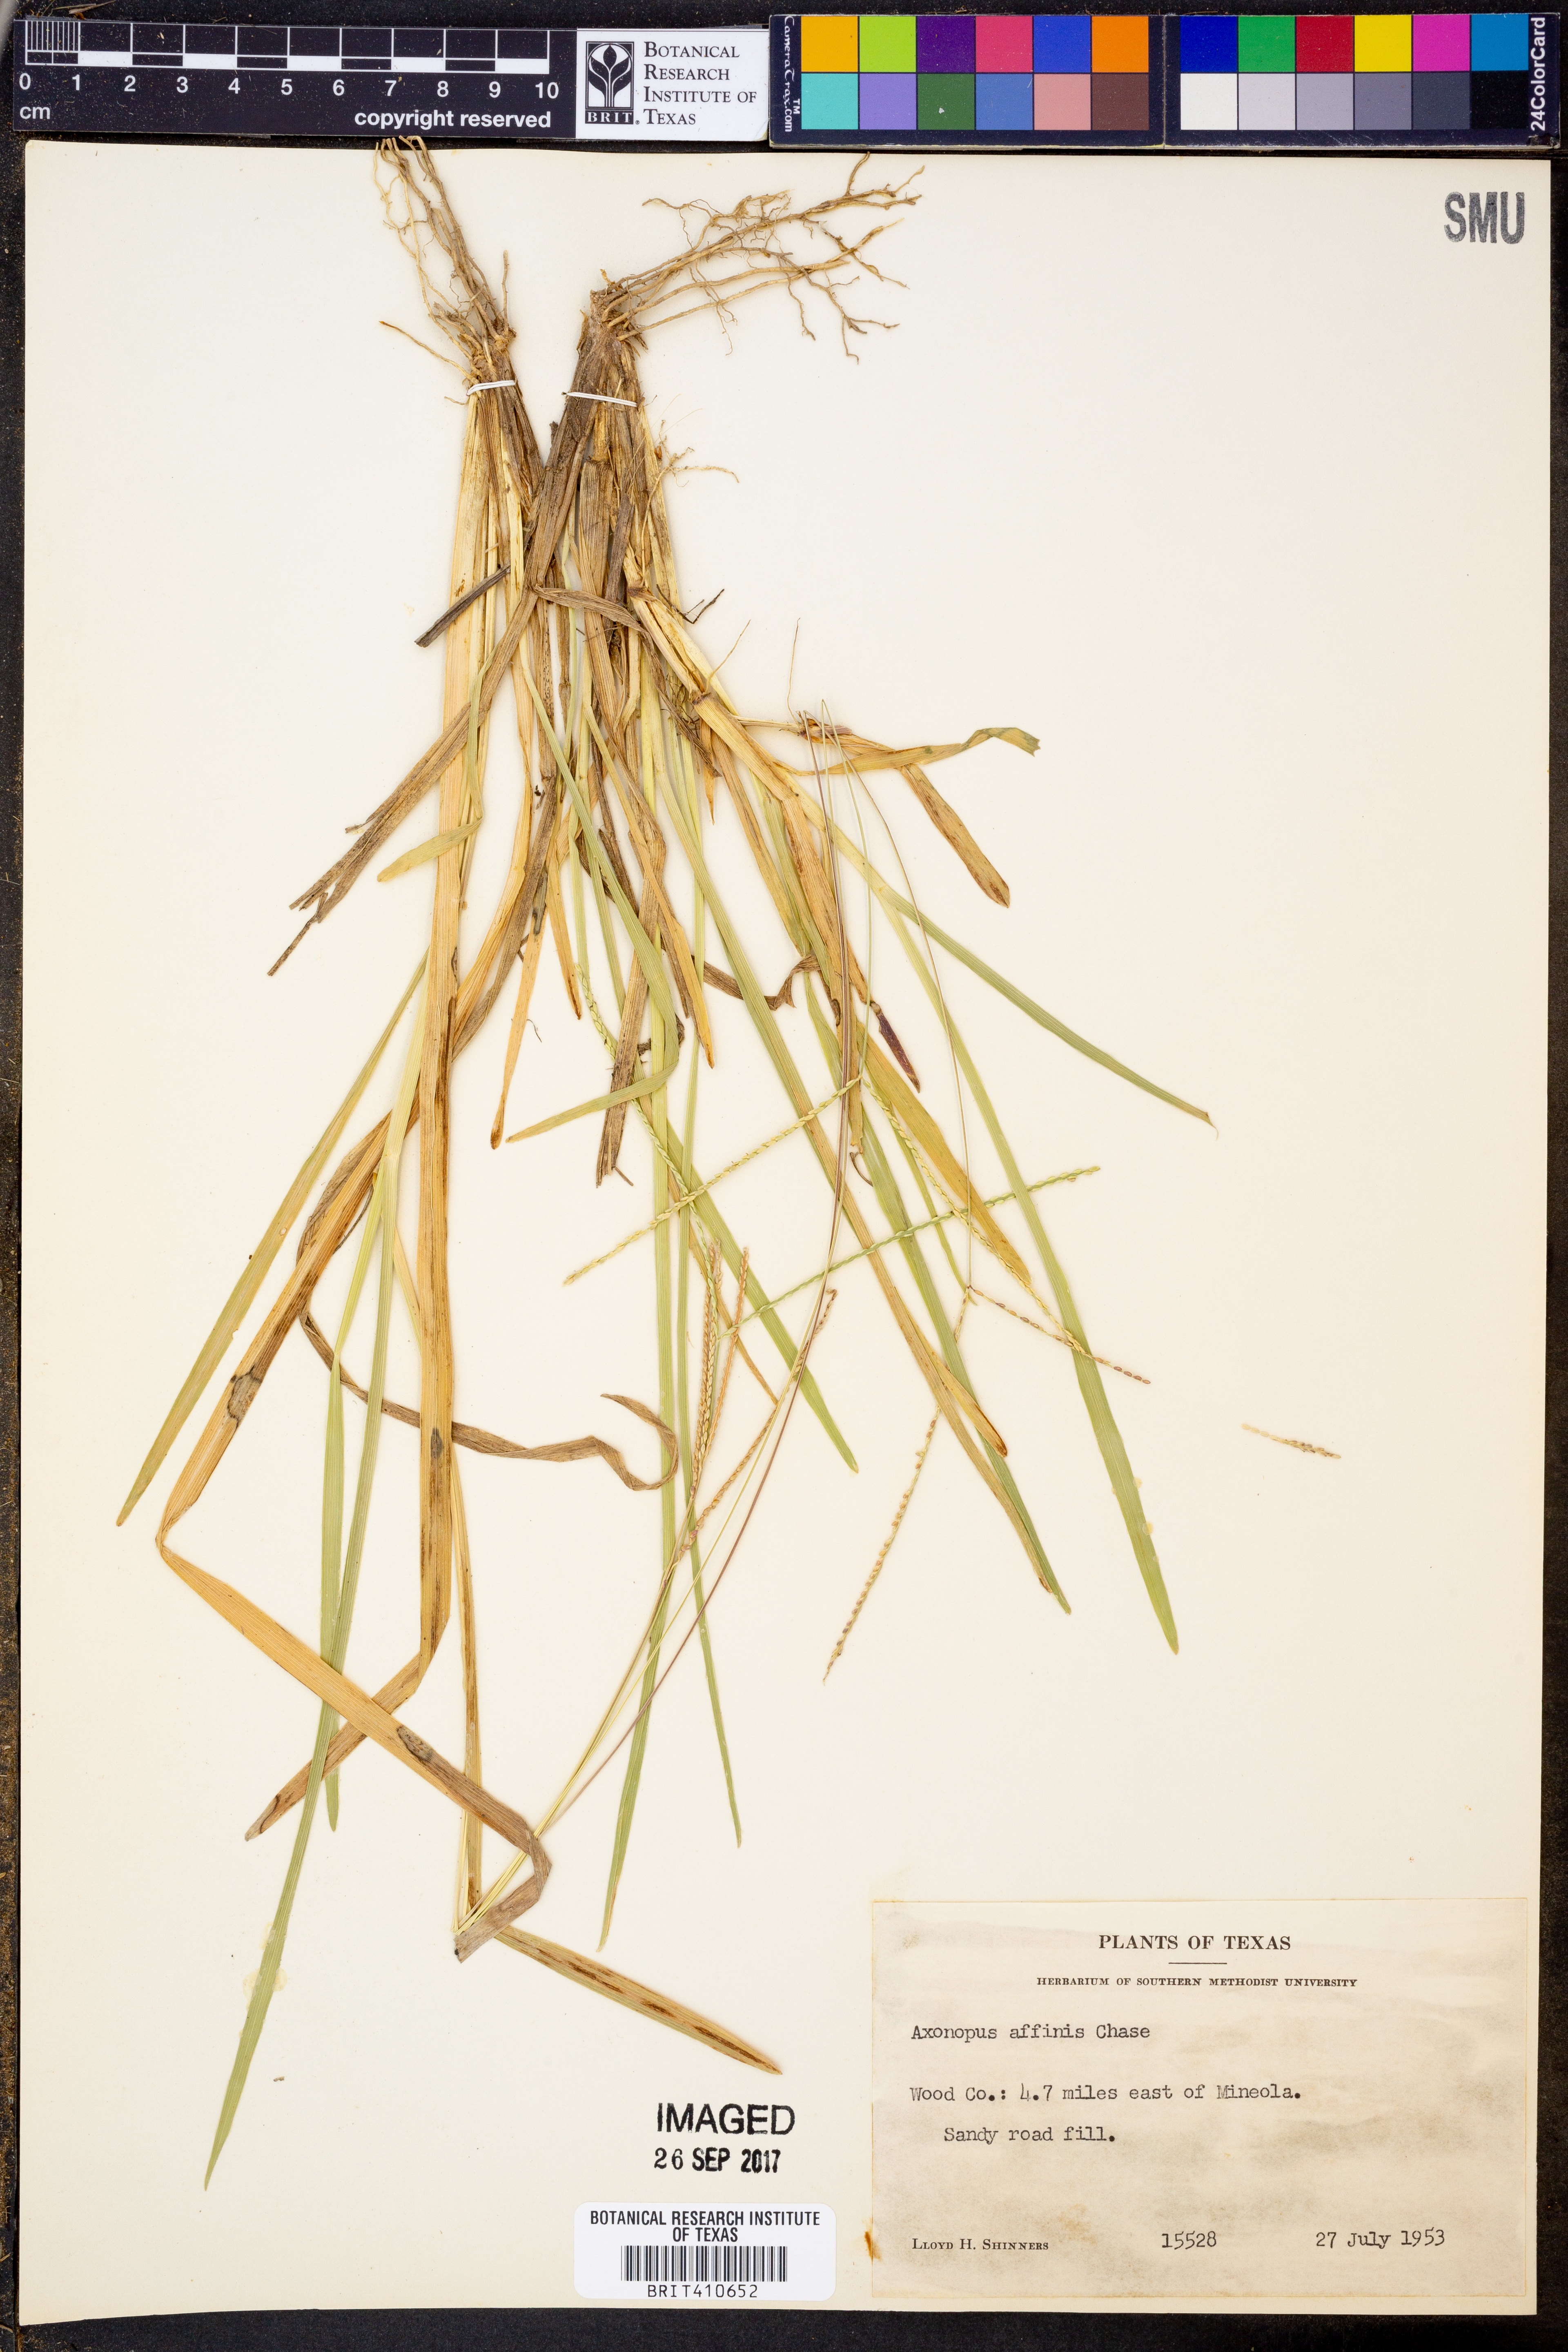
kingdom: Plantae
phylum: Tracheophyta
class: Liliopsida
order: Poales
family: Poaceae
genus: Axonopus
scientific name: Axonopus fissifolius
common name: Common carpetgrass
